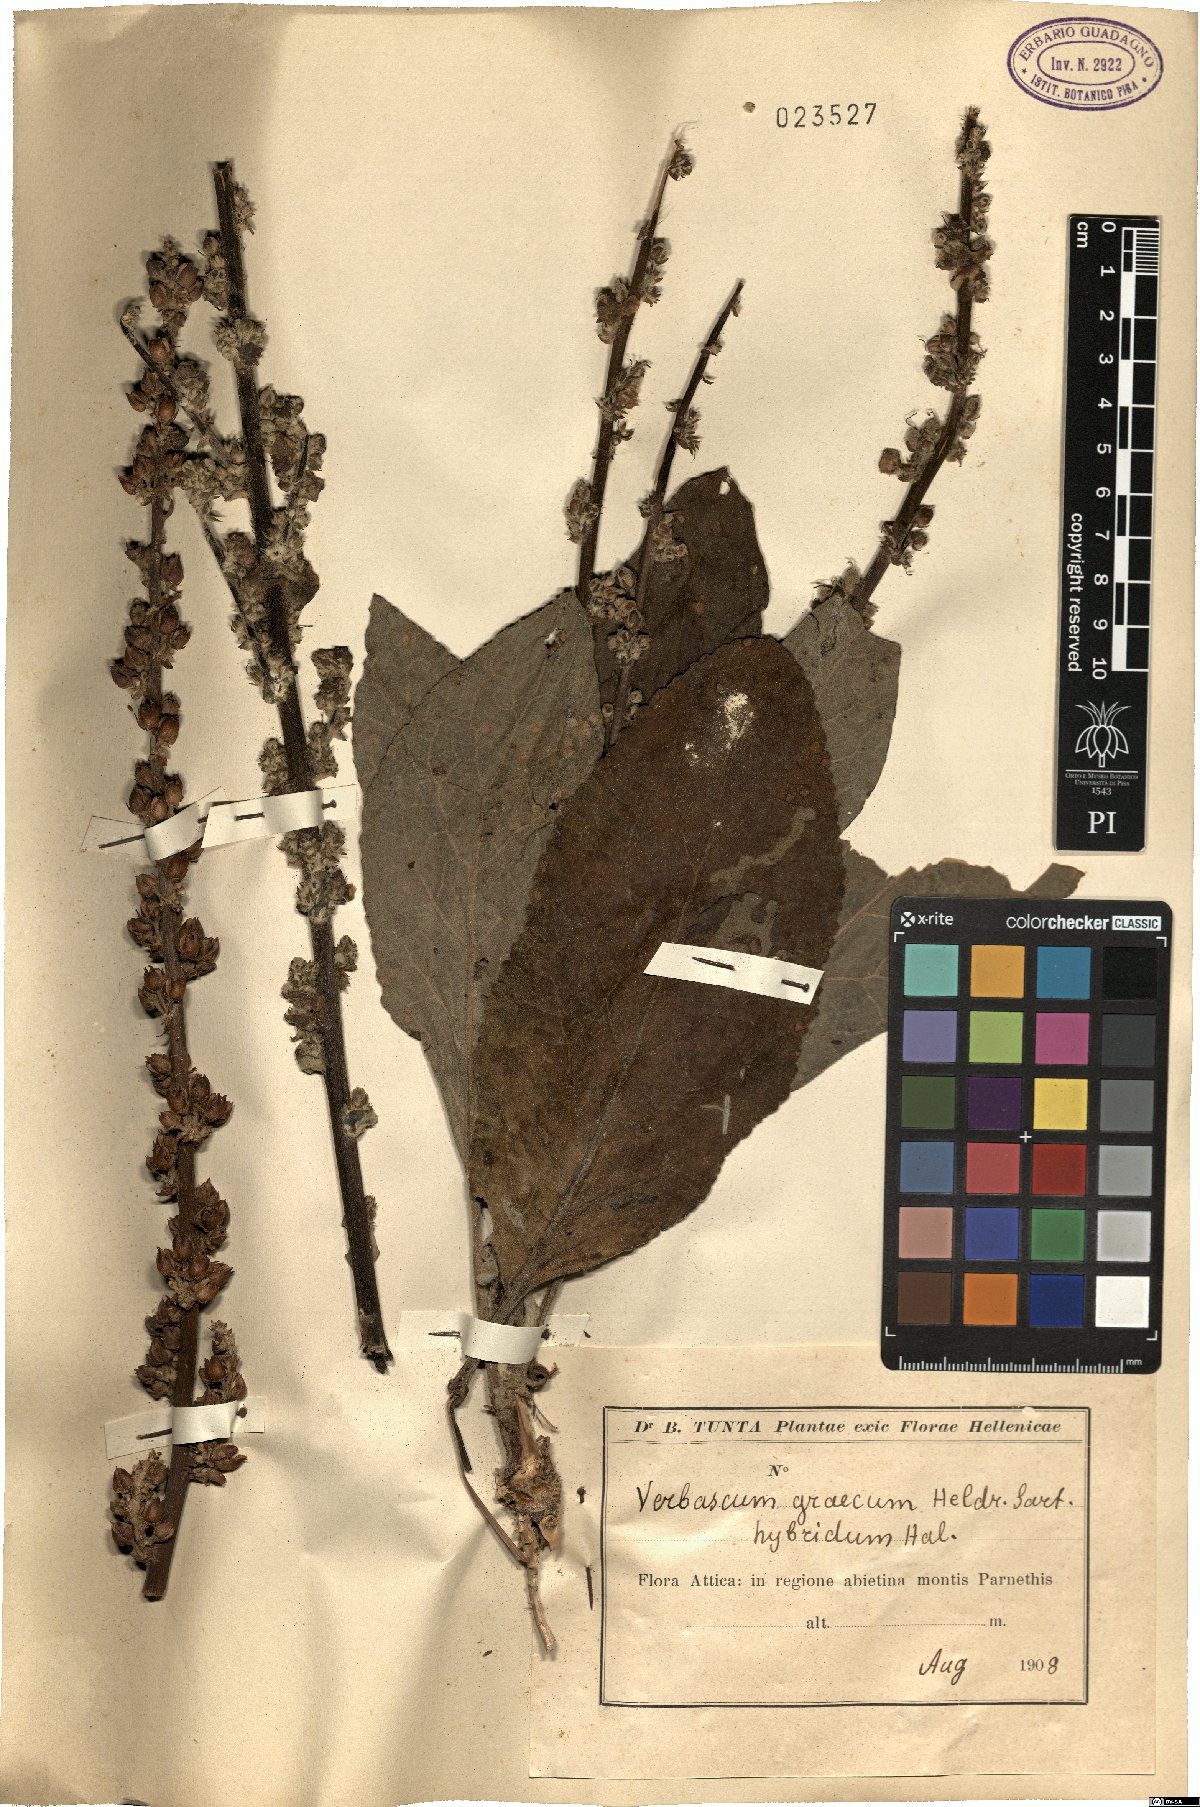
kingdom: Plantae
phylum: Tracheophyta
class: Magnoliopsida
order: Lamiales
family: Scrophulariaceae
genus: Verbascum
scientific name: Verbascum graecum
